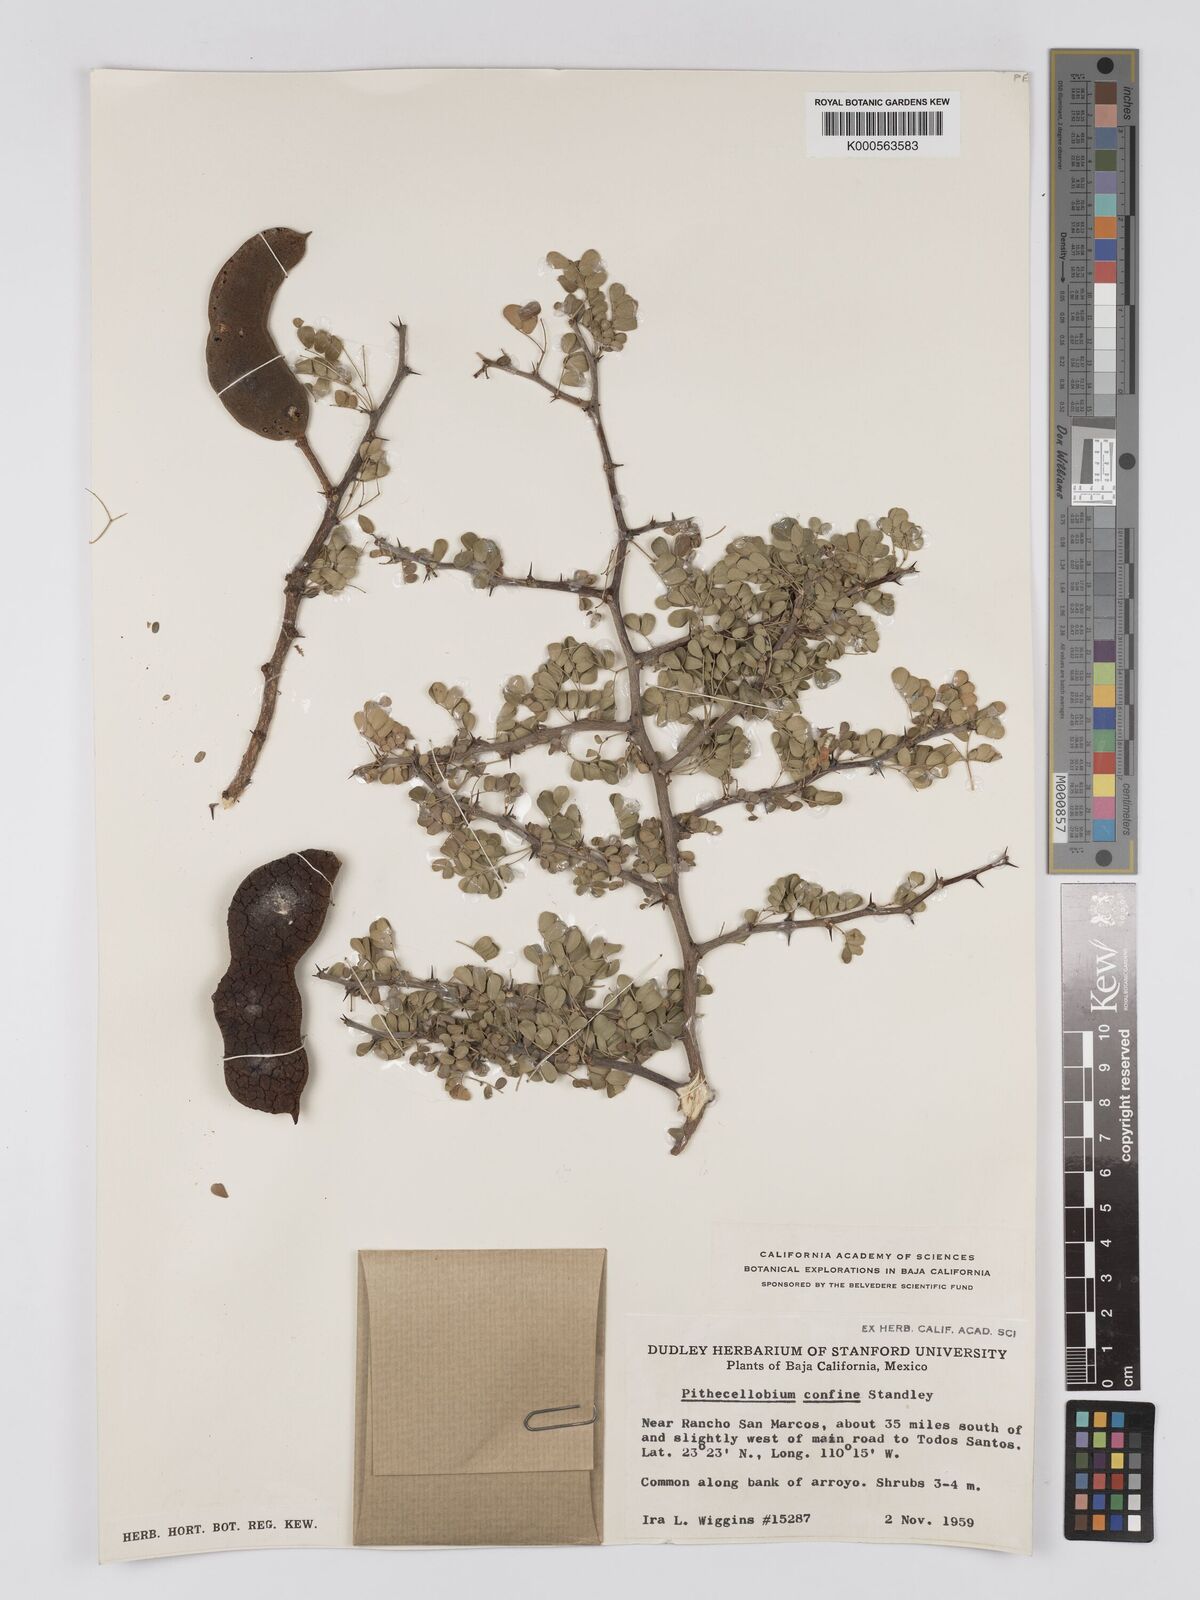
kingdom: Plantae
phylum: Tracheophyta
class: Magnoliopsida
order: Fabales
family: Fabaceae
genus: Chloroleucon
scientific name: Chloroleucon
